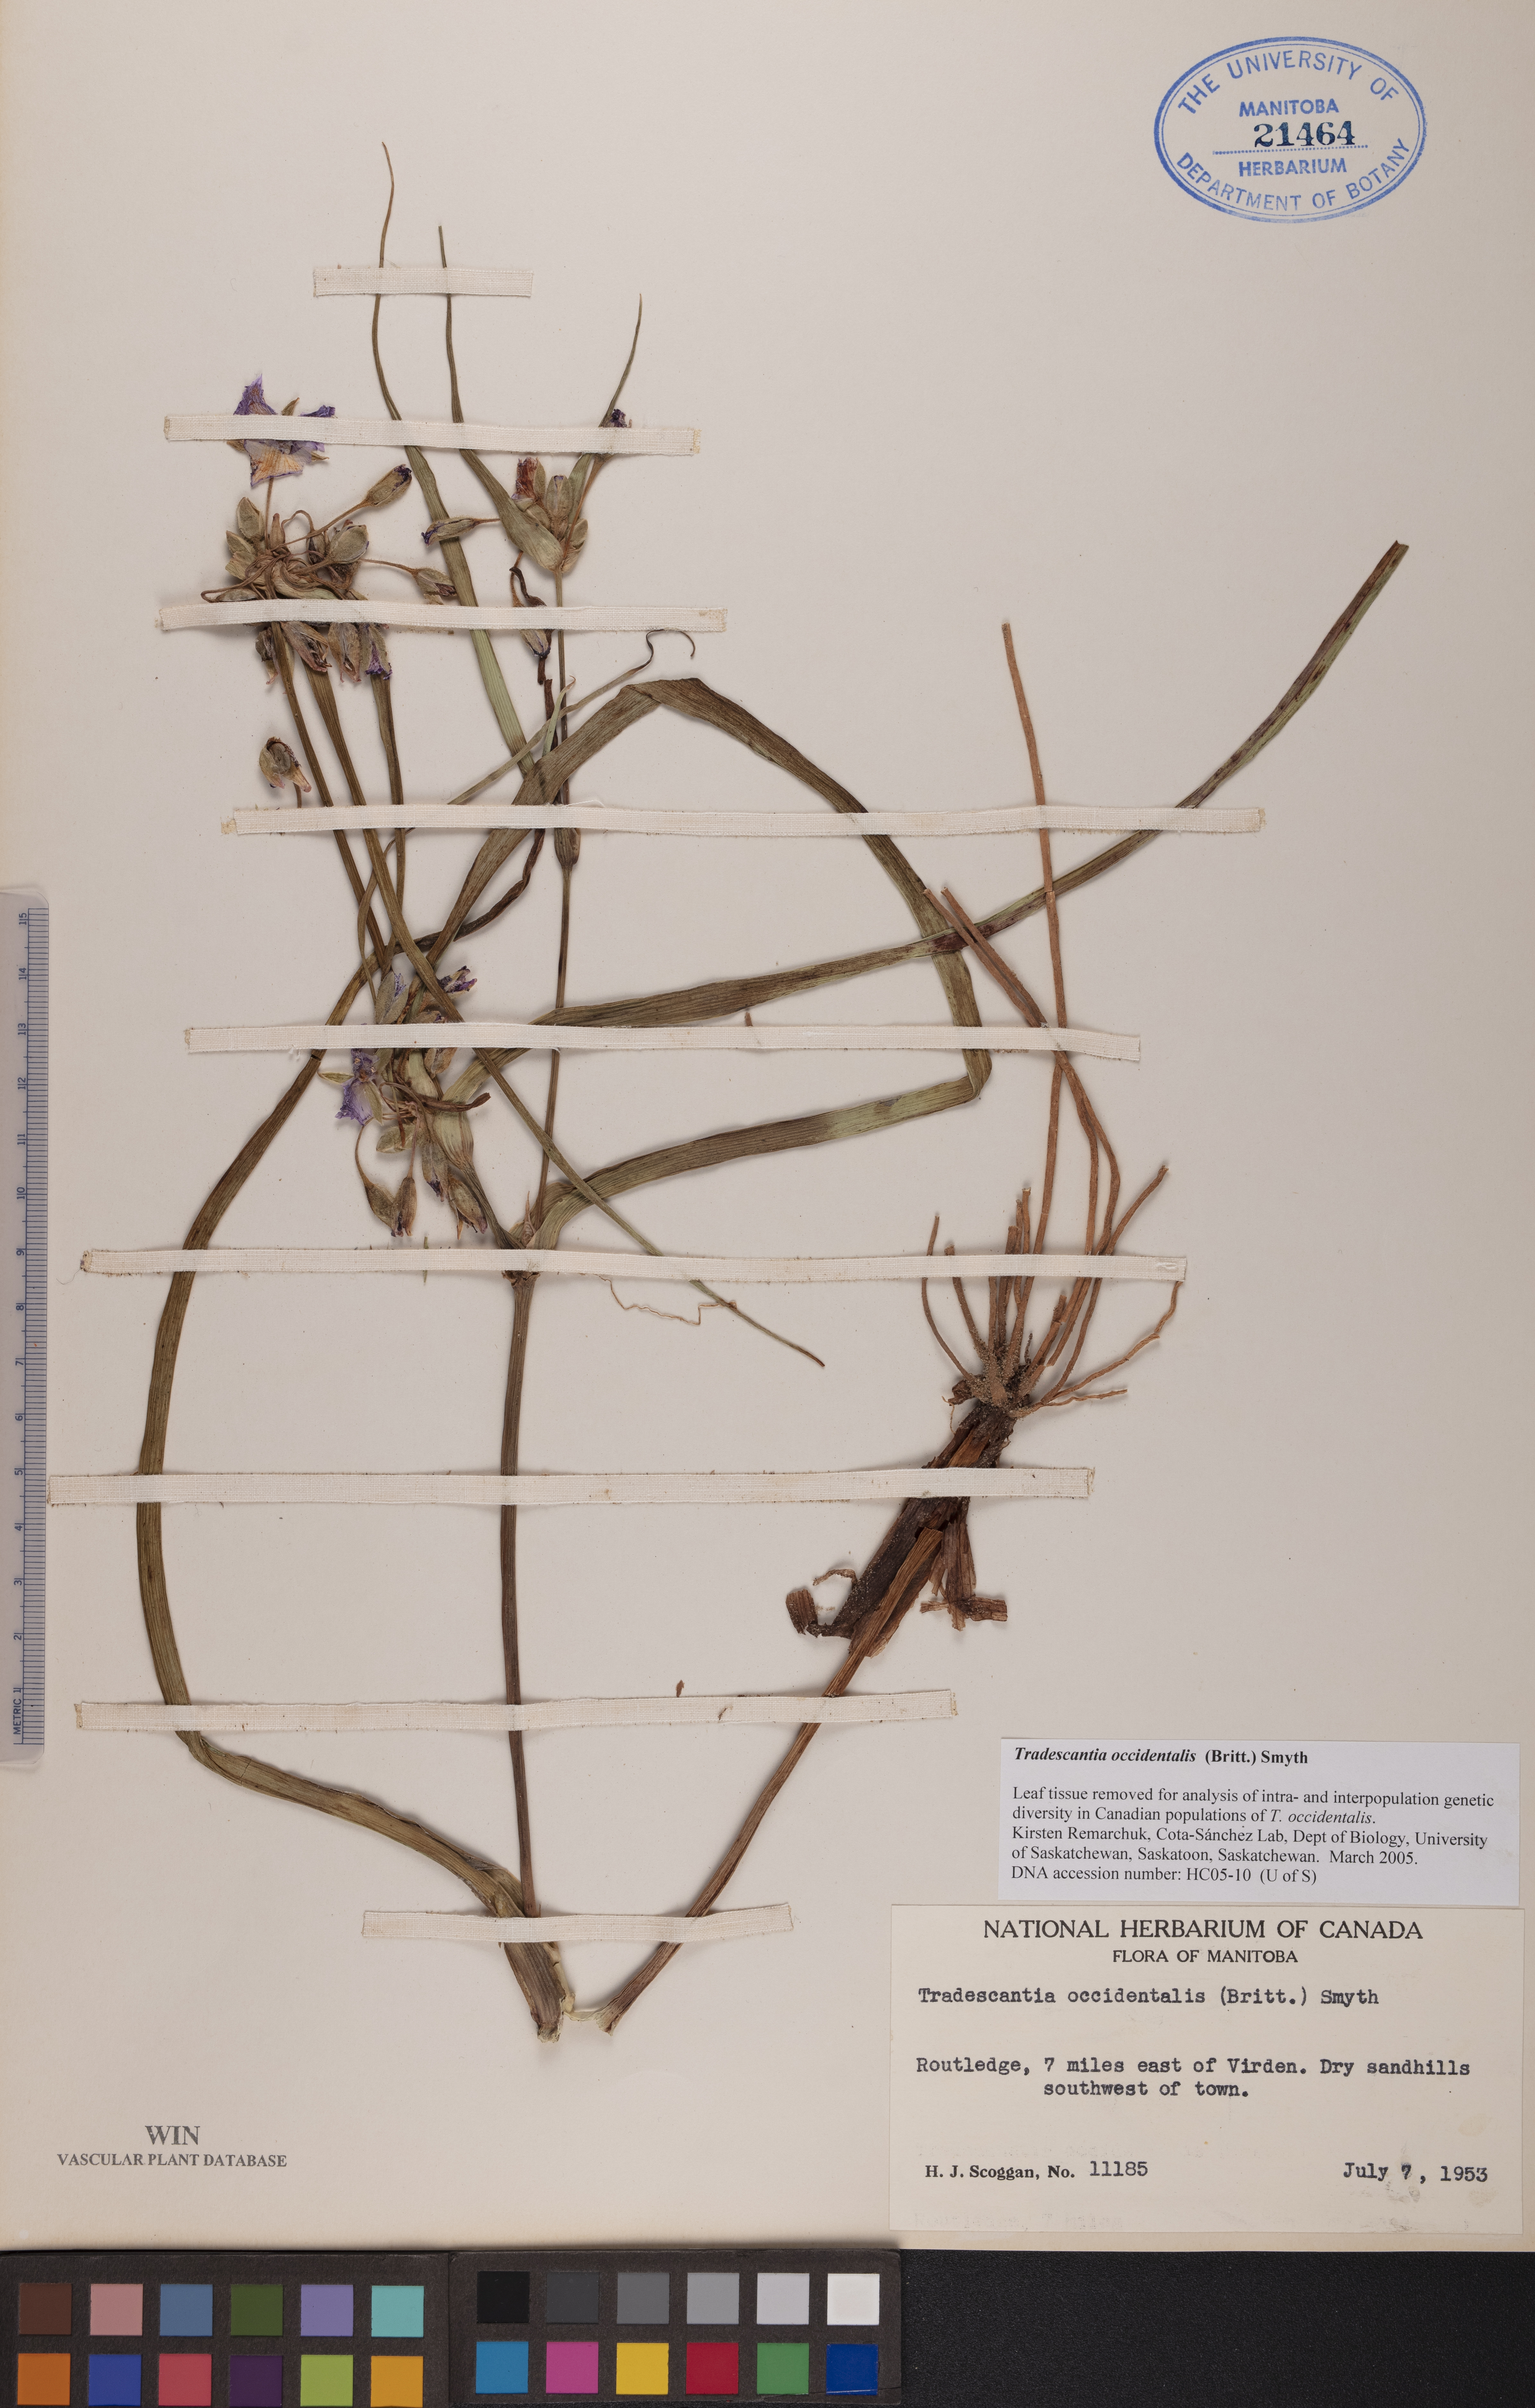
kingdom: Plantae
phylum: Tracheophyta
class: Liliopsida
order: Commelinales
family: Commelinaceae
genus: Tradescantia
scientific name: Tradescantia occidentalis
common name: Prairie spiderwort
